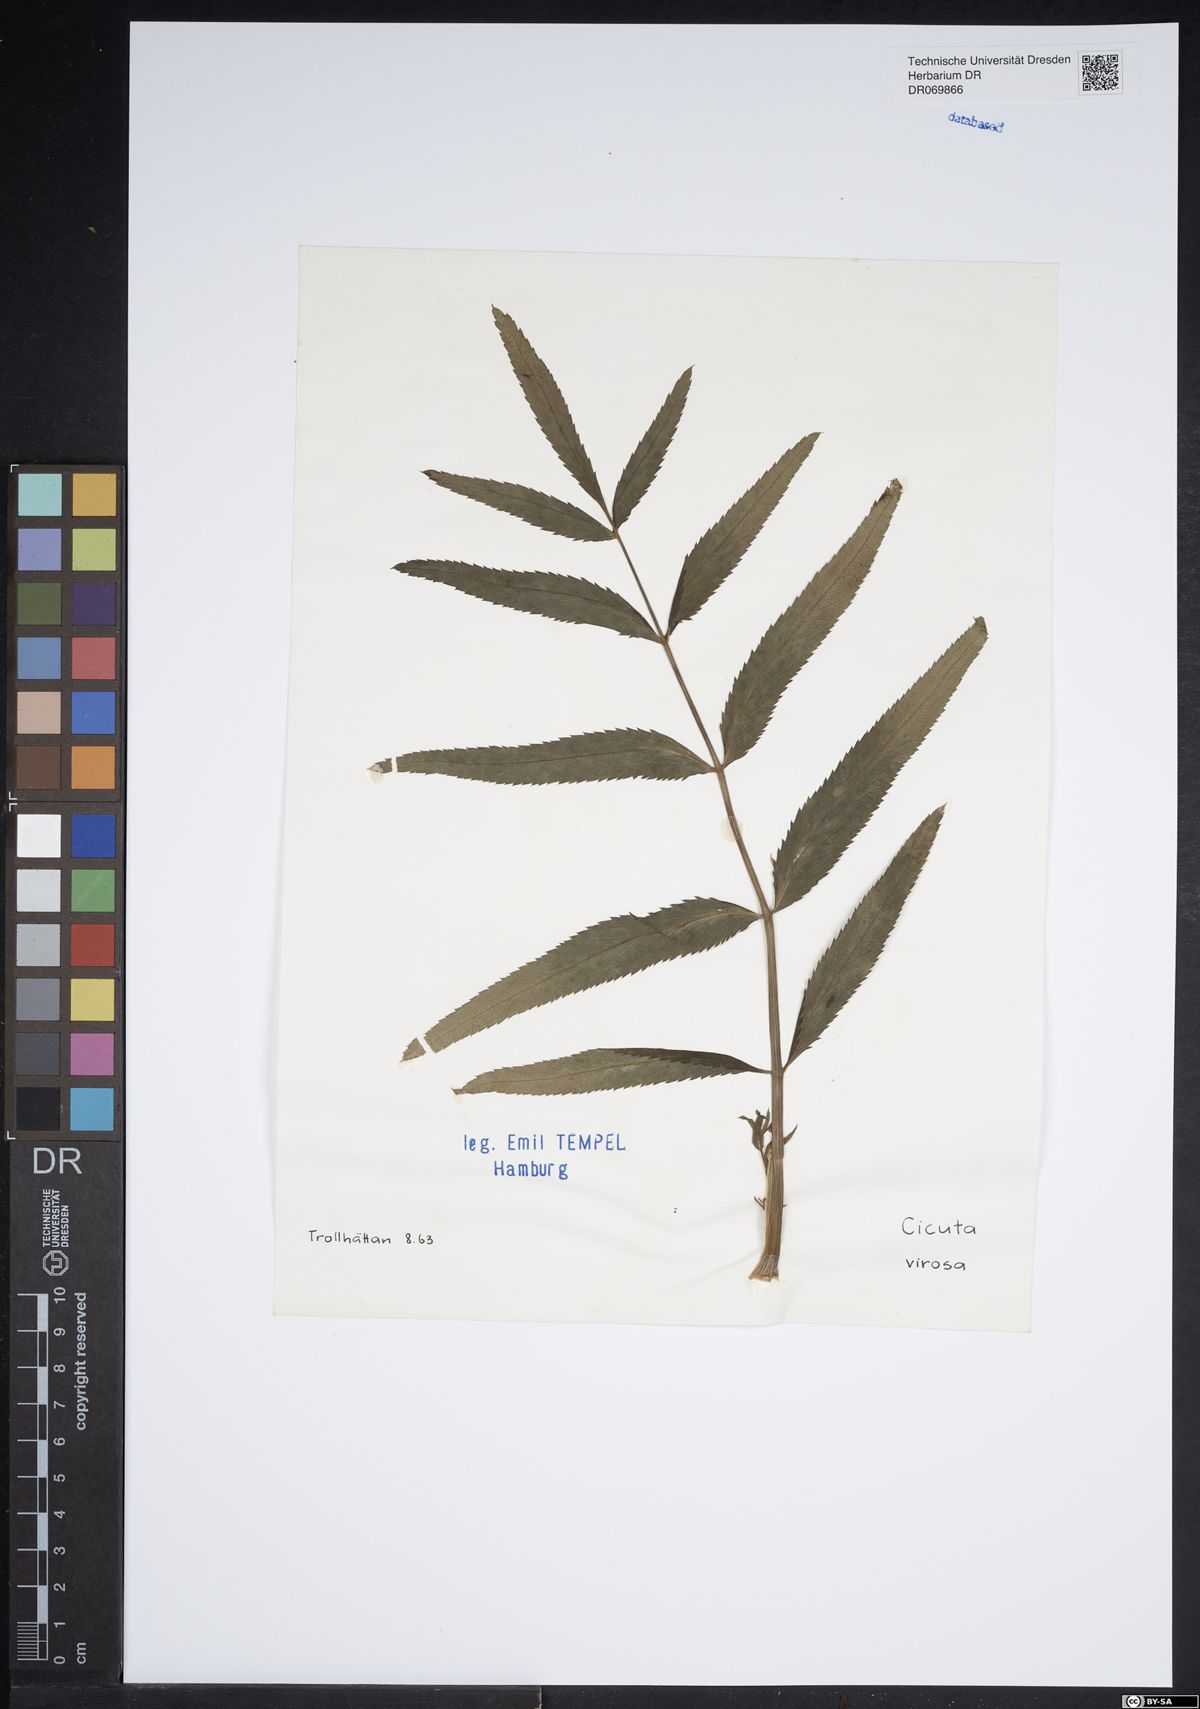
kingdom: Plantae
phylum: Tracheophyta
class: Magnoliopsida
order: Apiales
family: Apiaceae
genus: Cicuta
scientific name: Cicuta virosa
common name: Cowbane
